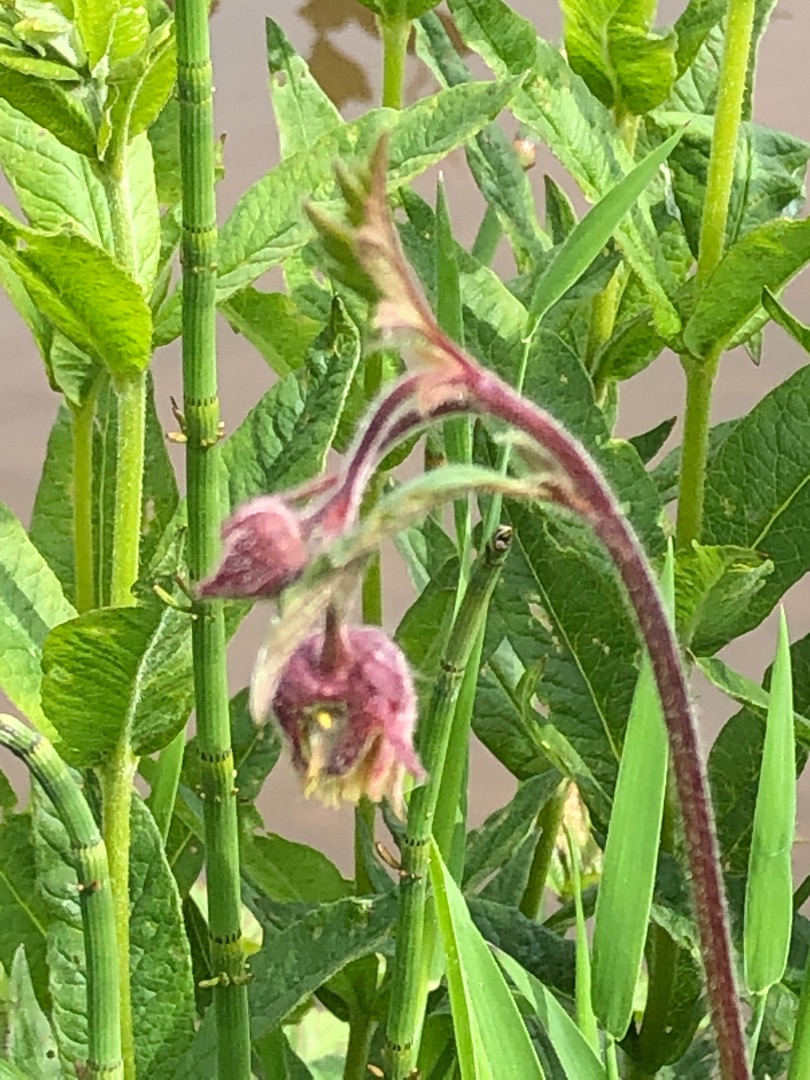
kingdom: Plantae
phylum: Tracheophyta
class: Magnoliopsida
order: Rosales
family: Rosaceae
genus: Geum
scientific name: Geum rivale
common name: Eng-nellikerod
